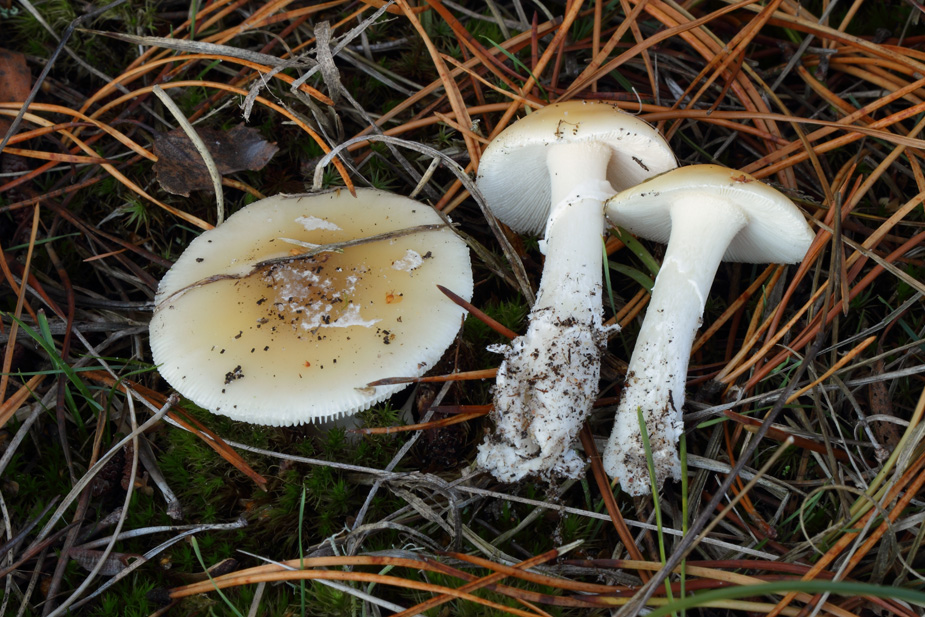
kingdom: Fungi
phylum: Basidiomycota
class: Agaricomycetes
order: Agaricales
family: Amanitaceae
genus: Amanita
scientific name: Amanita gemmata
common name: okkergul fluesvamp
